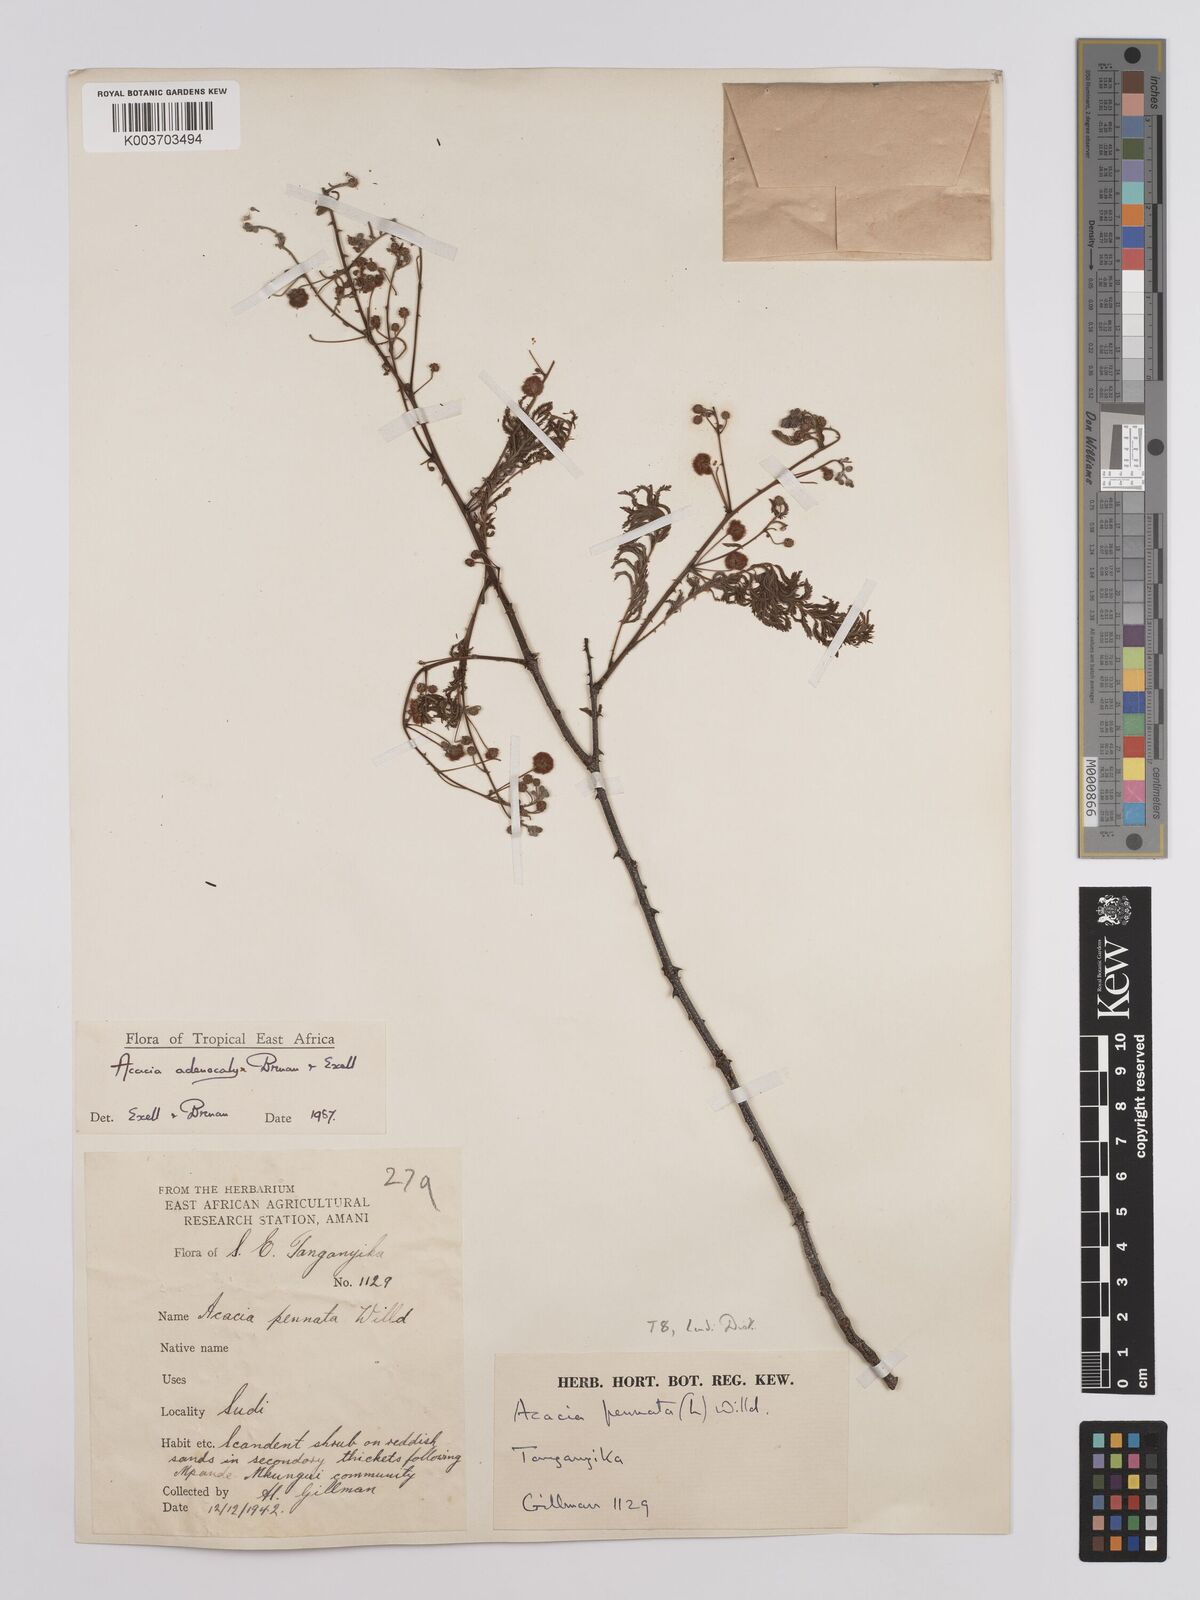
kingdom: Plantae
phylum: Tracheophyta
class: Magnoliopsida
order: Fabales
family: Fabaceae
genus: Senegalia
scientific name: Senegalia adenocalyx
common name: Pfurura
